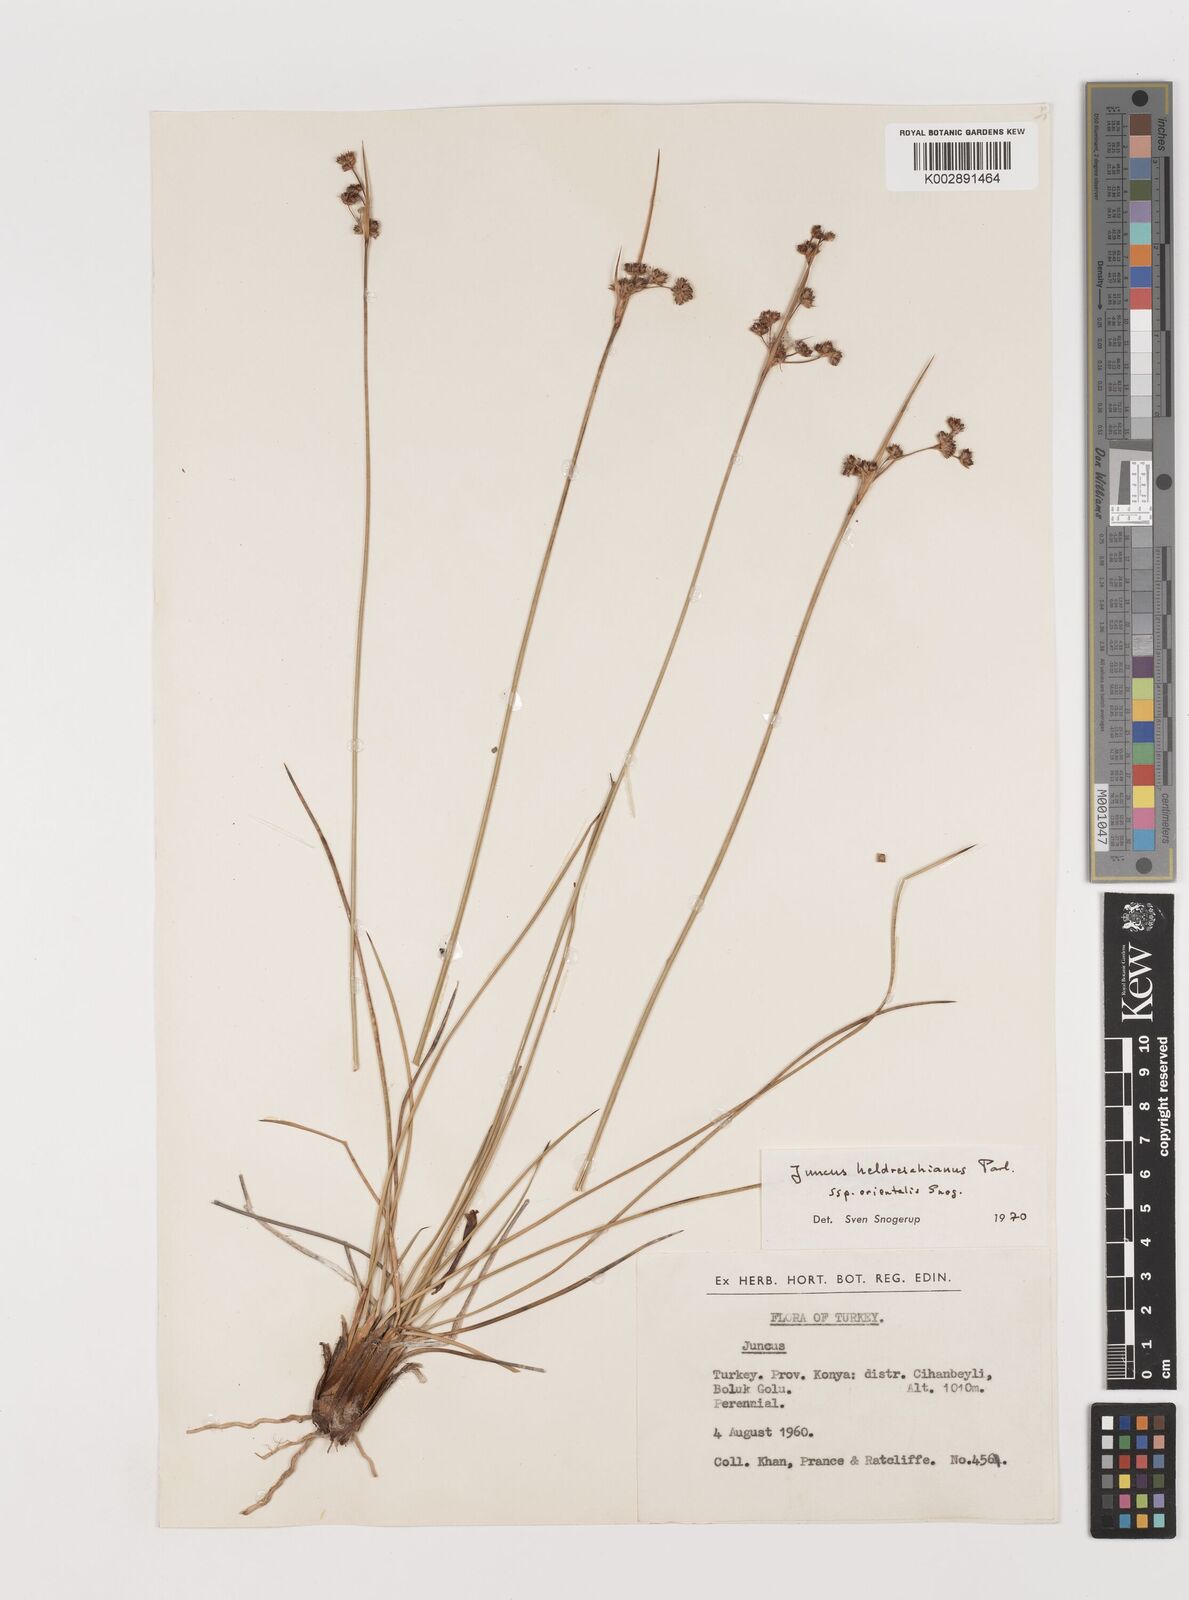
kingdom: Plantae
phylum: Tracheophyta
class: Liliopsida
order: Poales
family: Juncaceae
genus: Juncus
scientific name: Juncus heldreichianus
